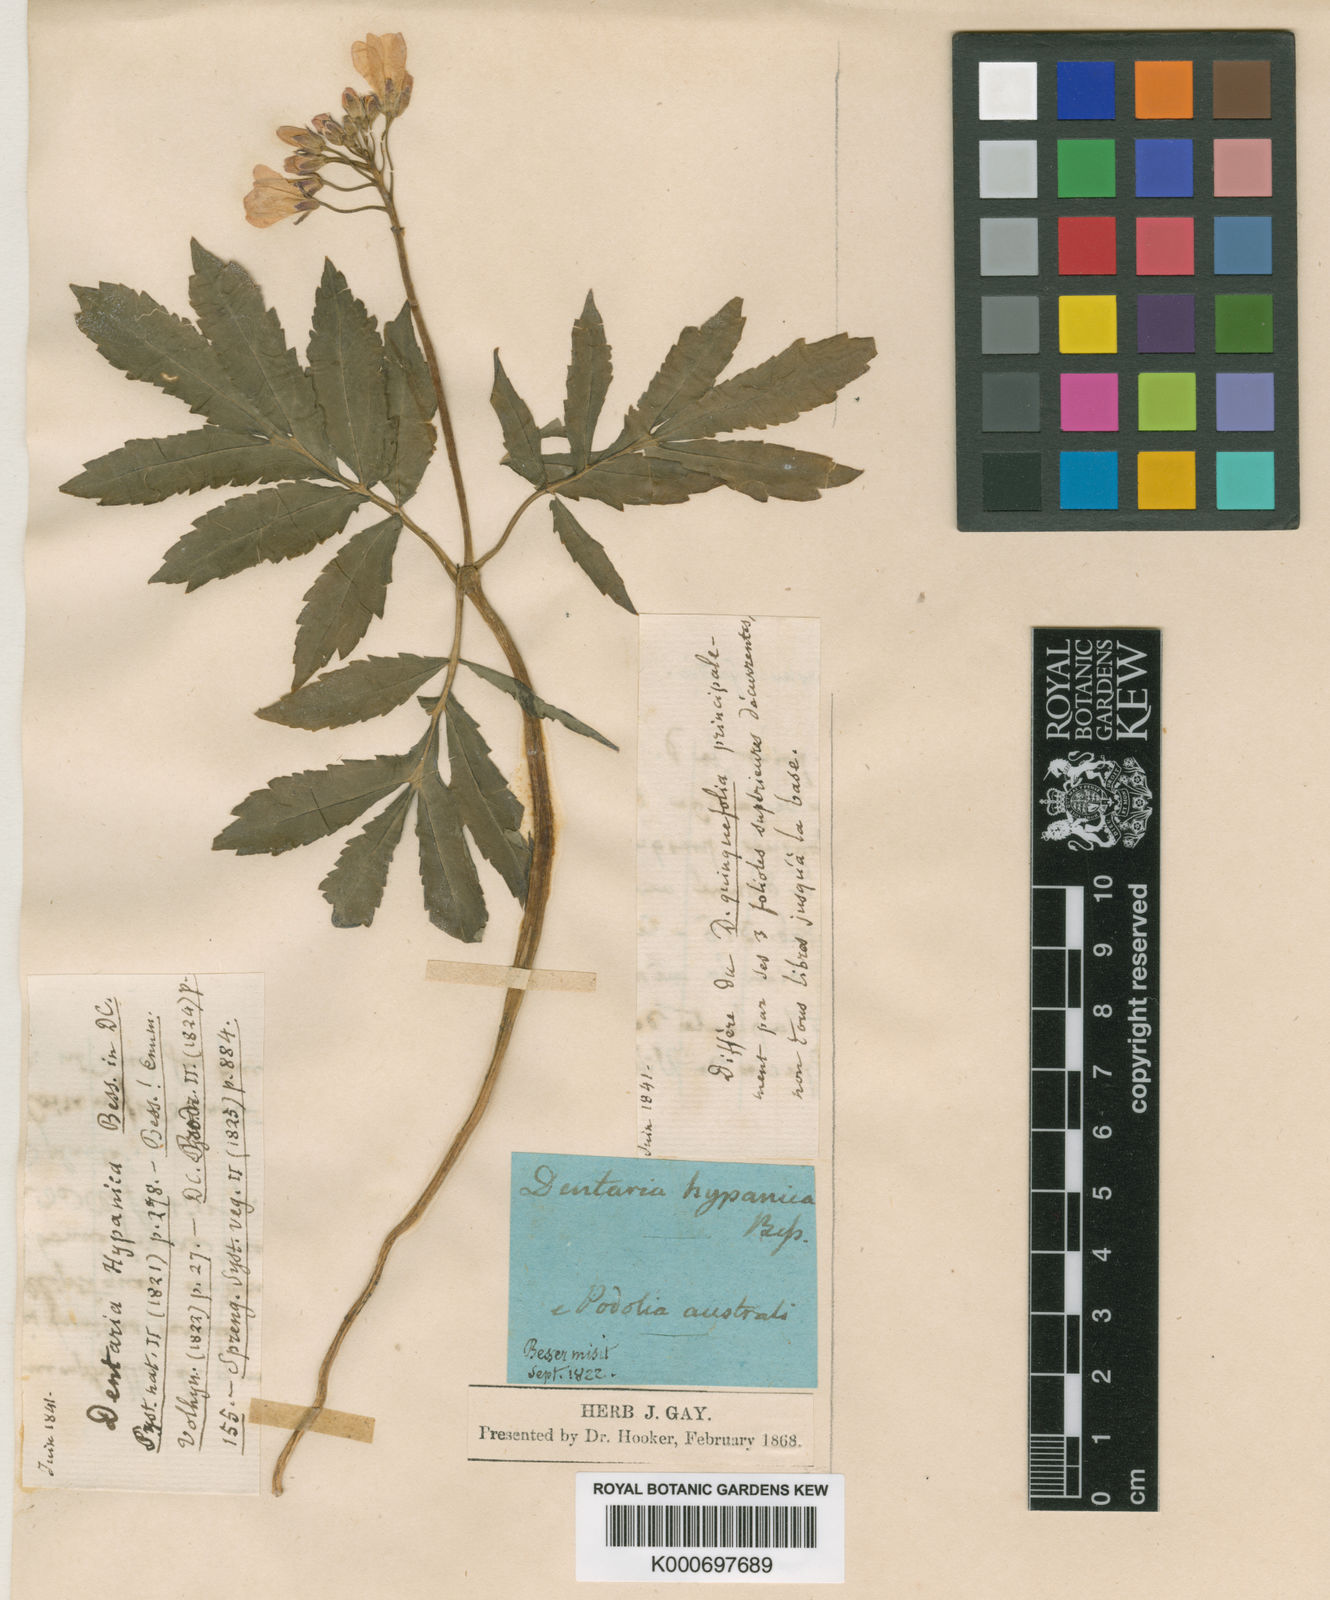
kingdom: Plantae
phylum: Tracheophyta
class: Magnoliopsida
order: Brassicales
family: Brassicaceae
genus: Cardamine
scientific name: Cardamine quinquefolia
